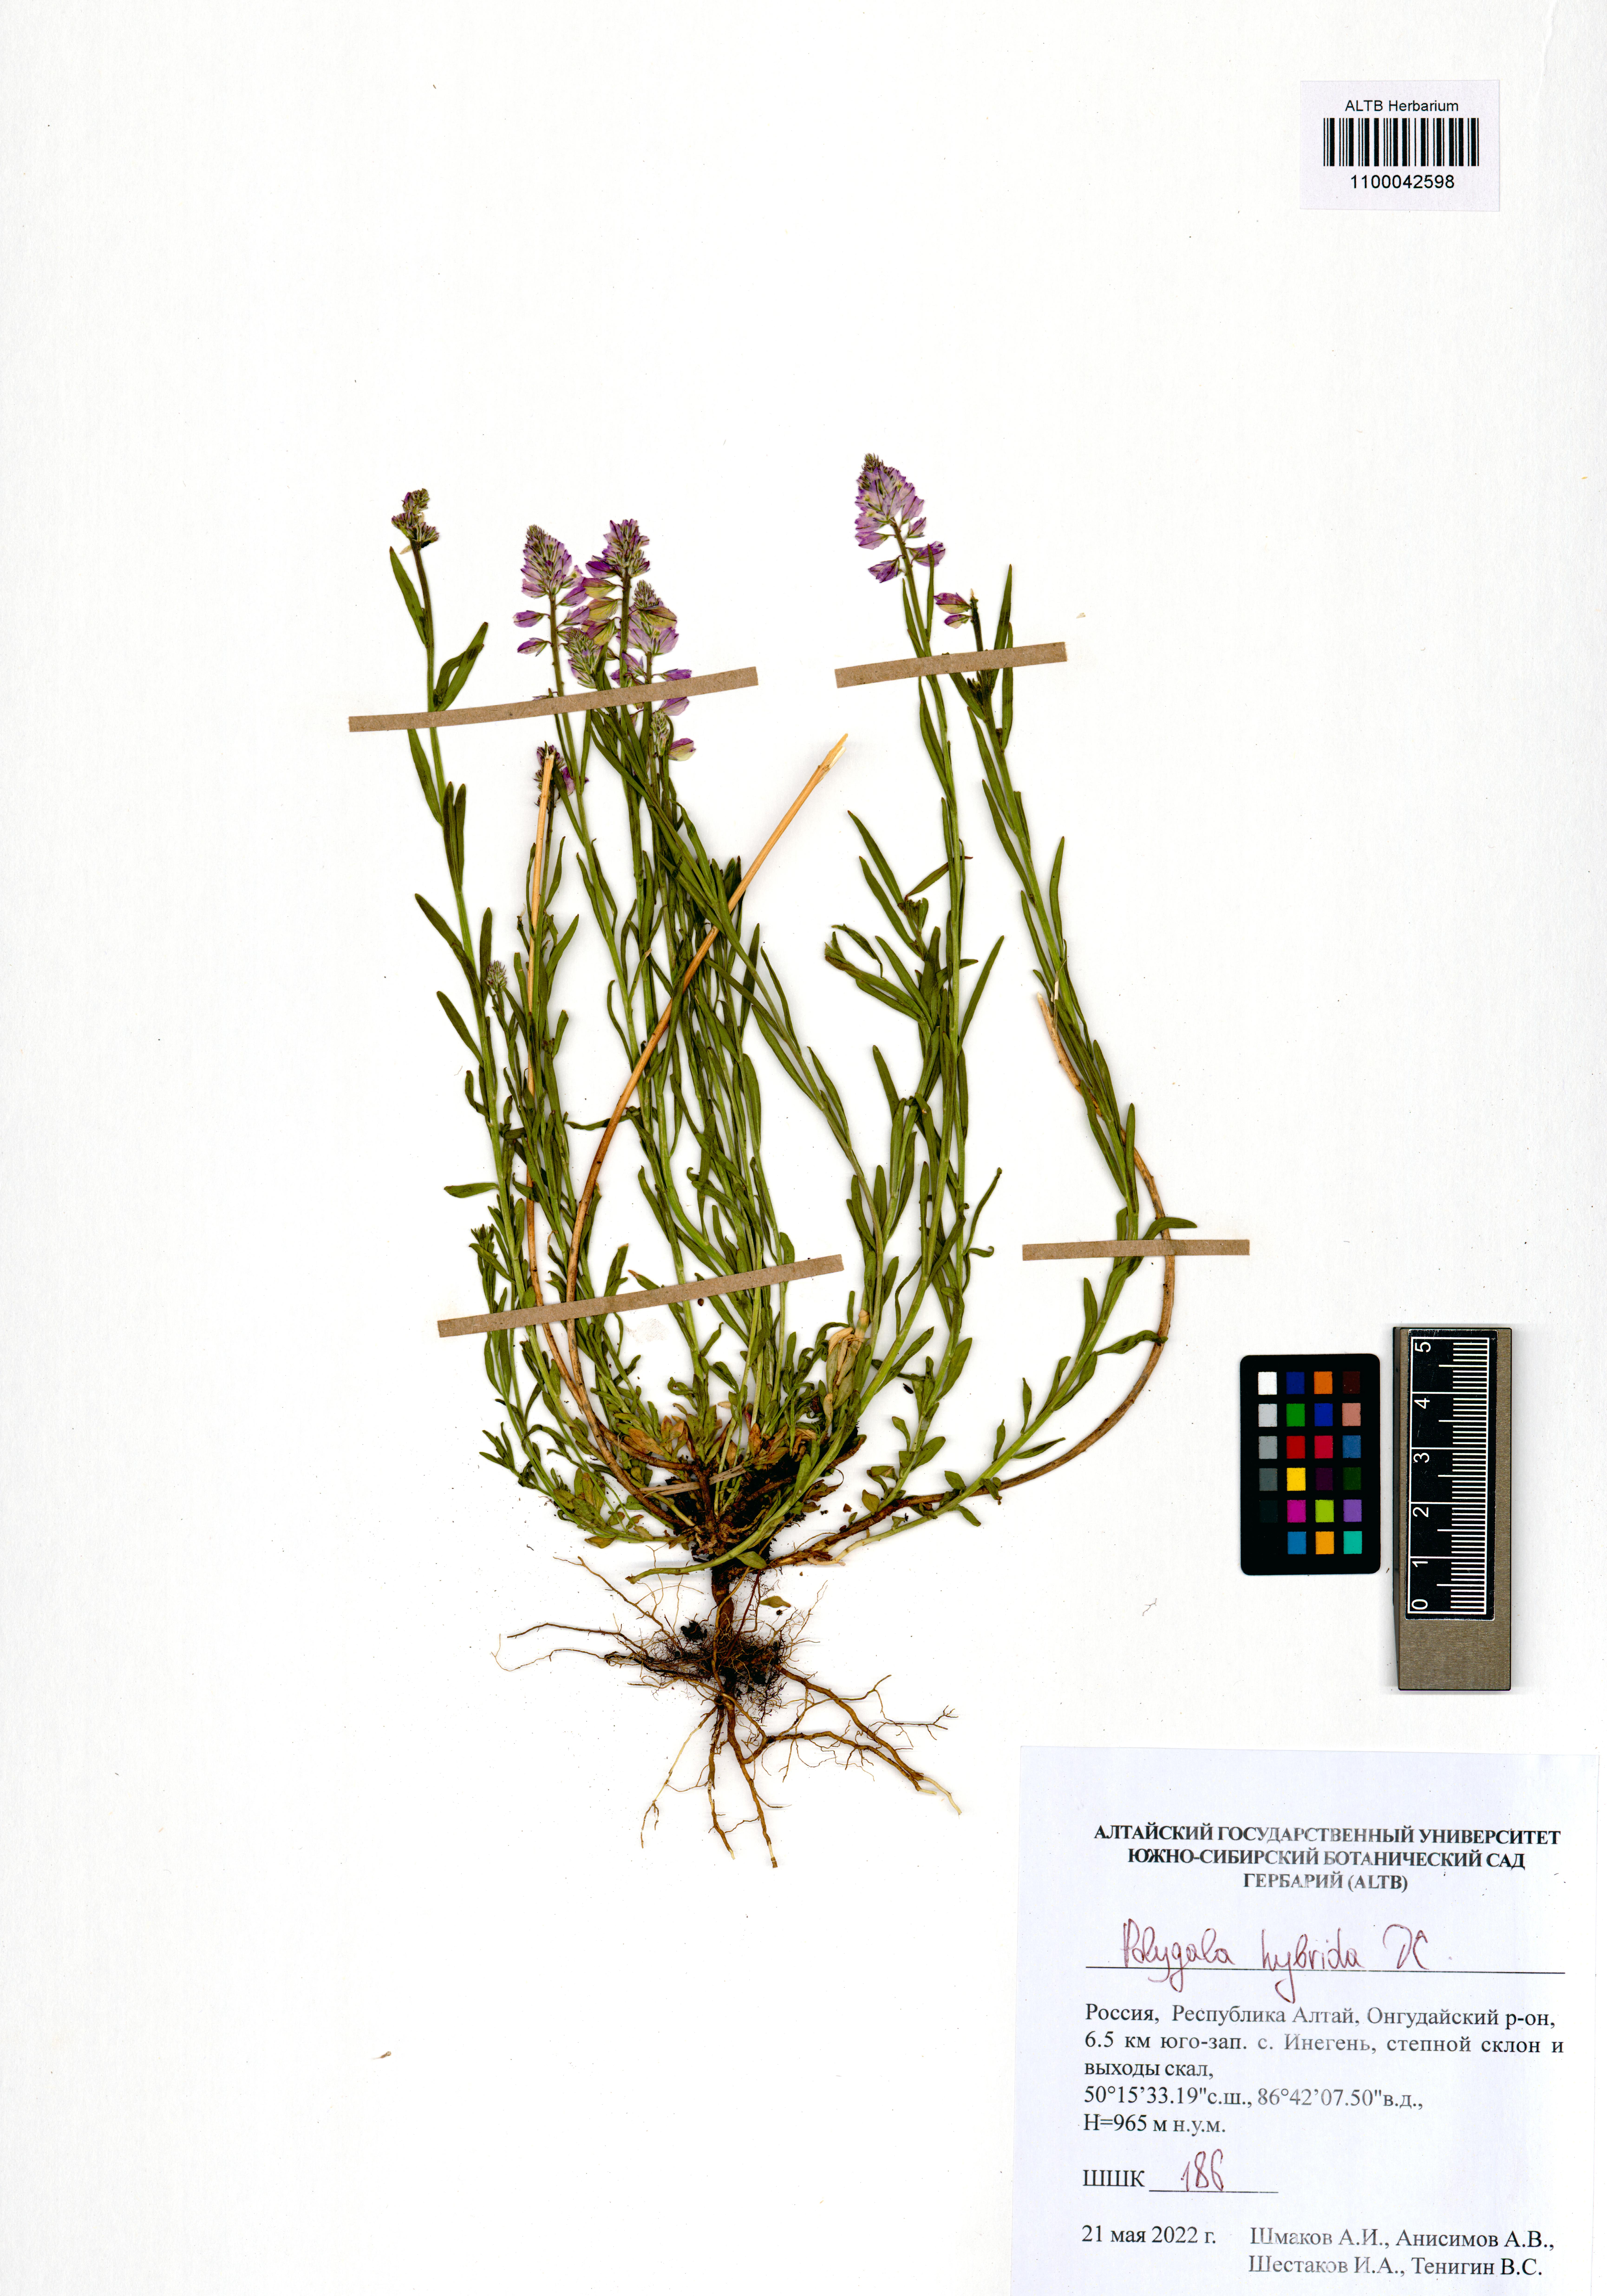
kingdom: Plantae
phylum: Tracheophyta
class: Magnoliopsida
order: Fabales
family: Polygalaceae
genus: Polygala
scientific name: Polygala comosa
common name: Tufted milkwort
